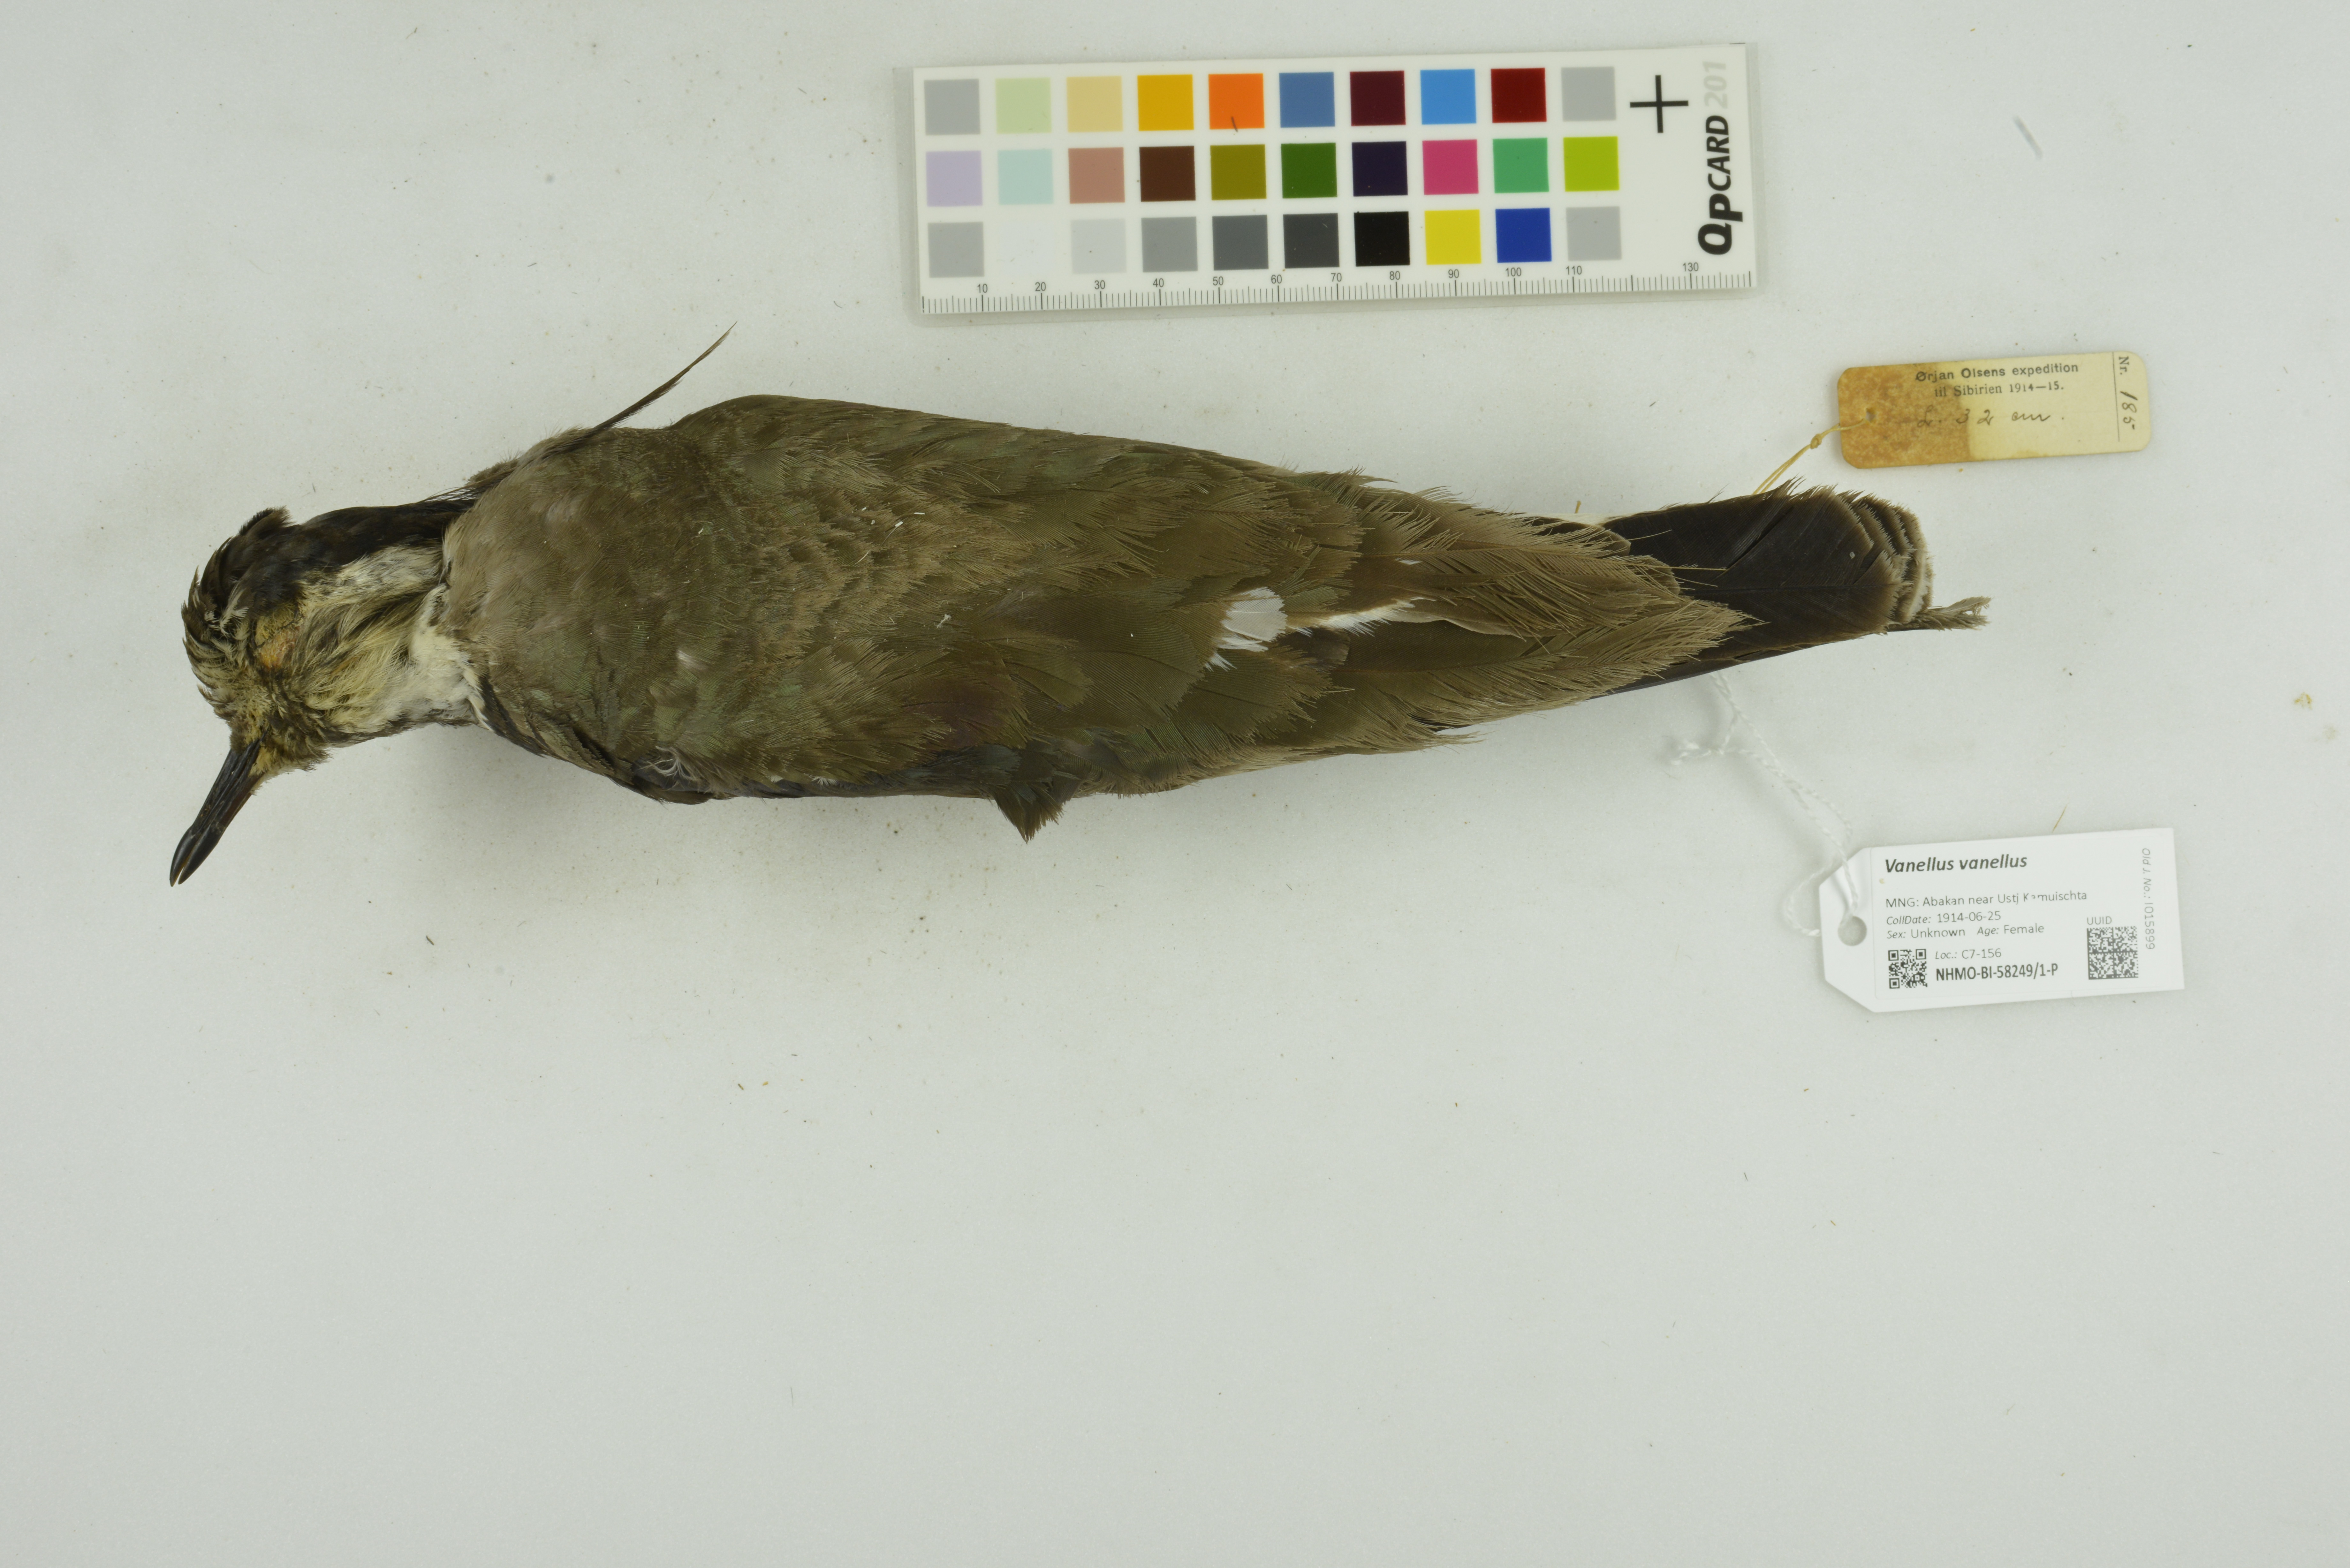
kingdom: Animalia
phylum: Chordata
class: Aves
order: Charadriiformes
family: Charadriidae
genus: Vanellus
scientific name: Vanellus vanellus
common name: Northern lapwing
